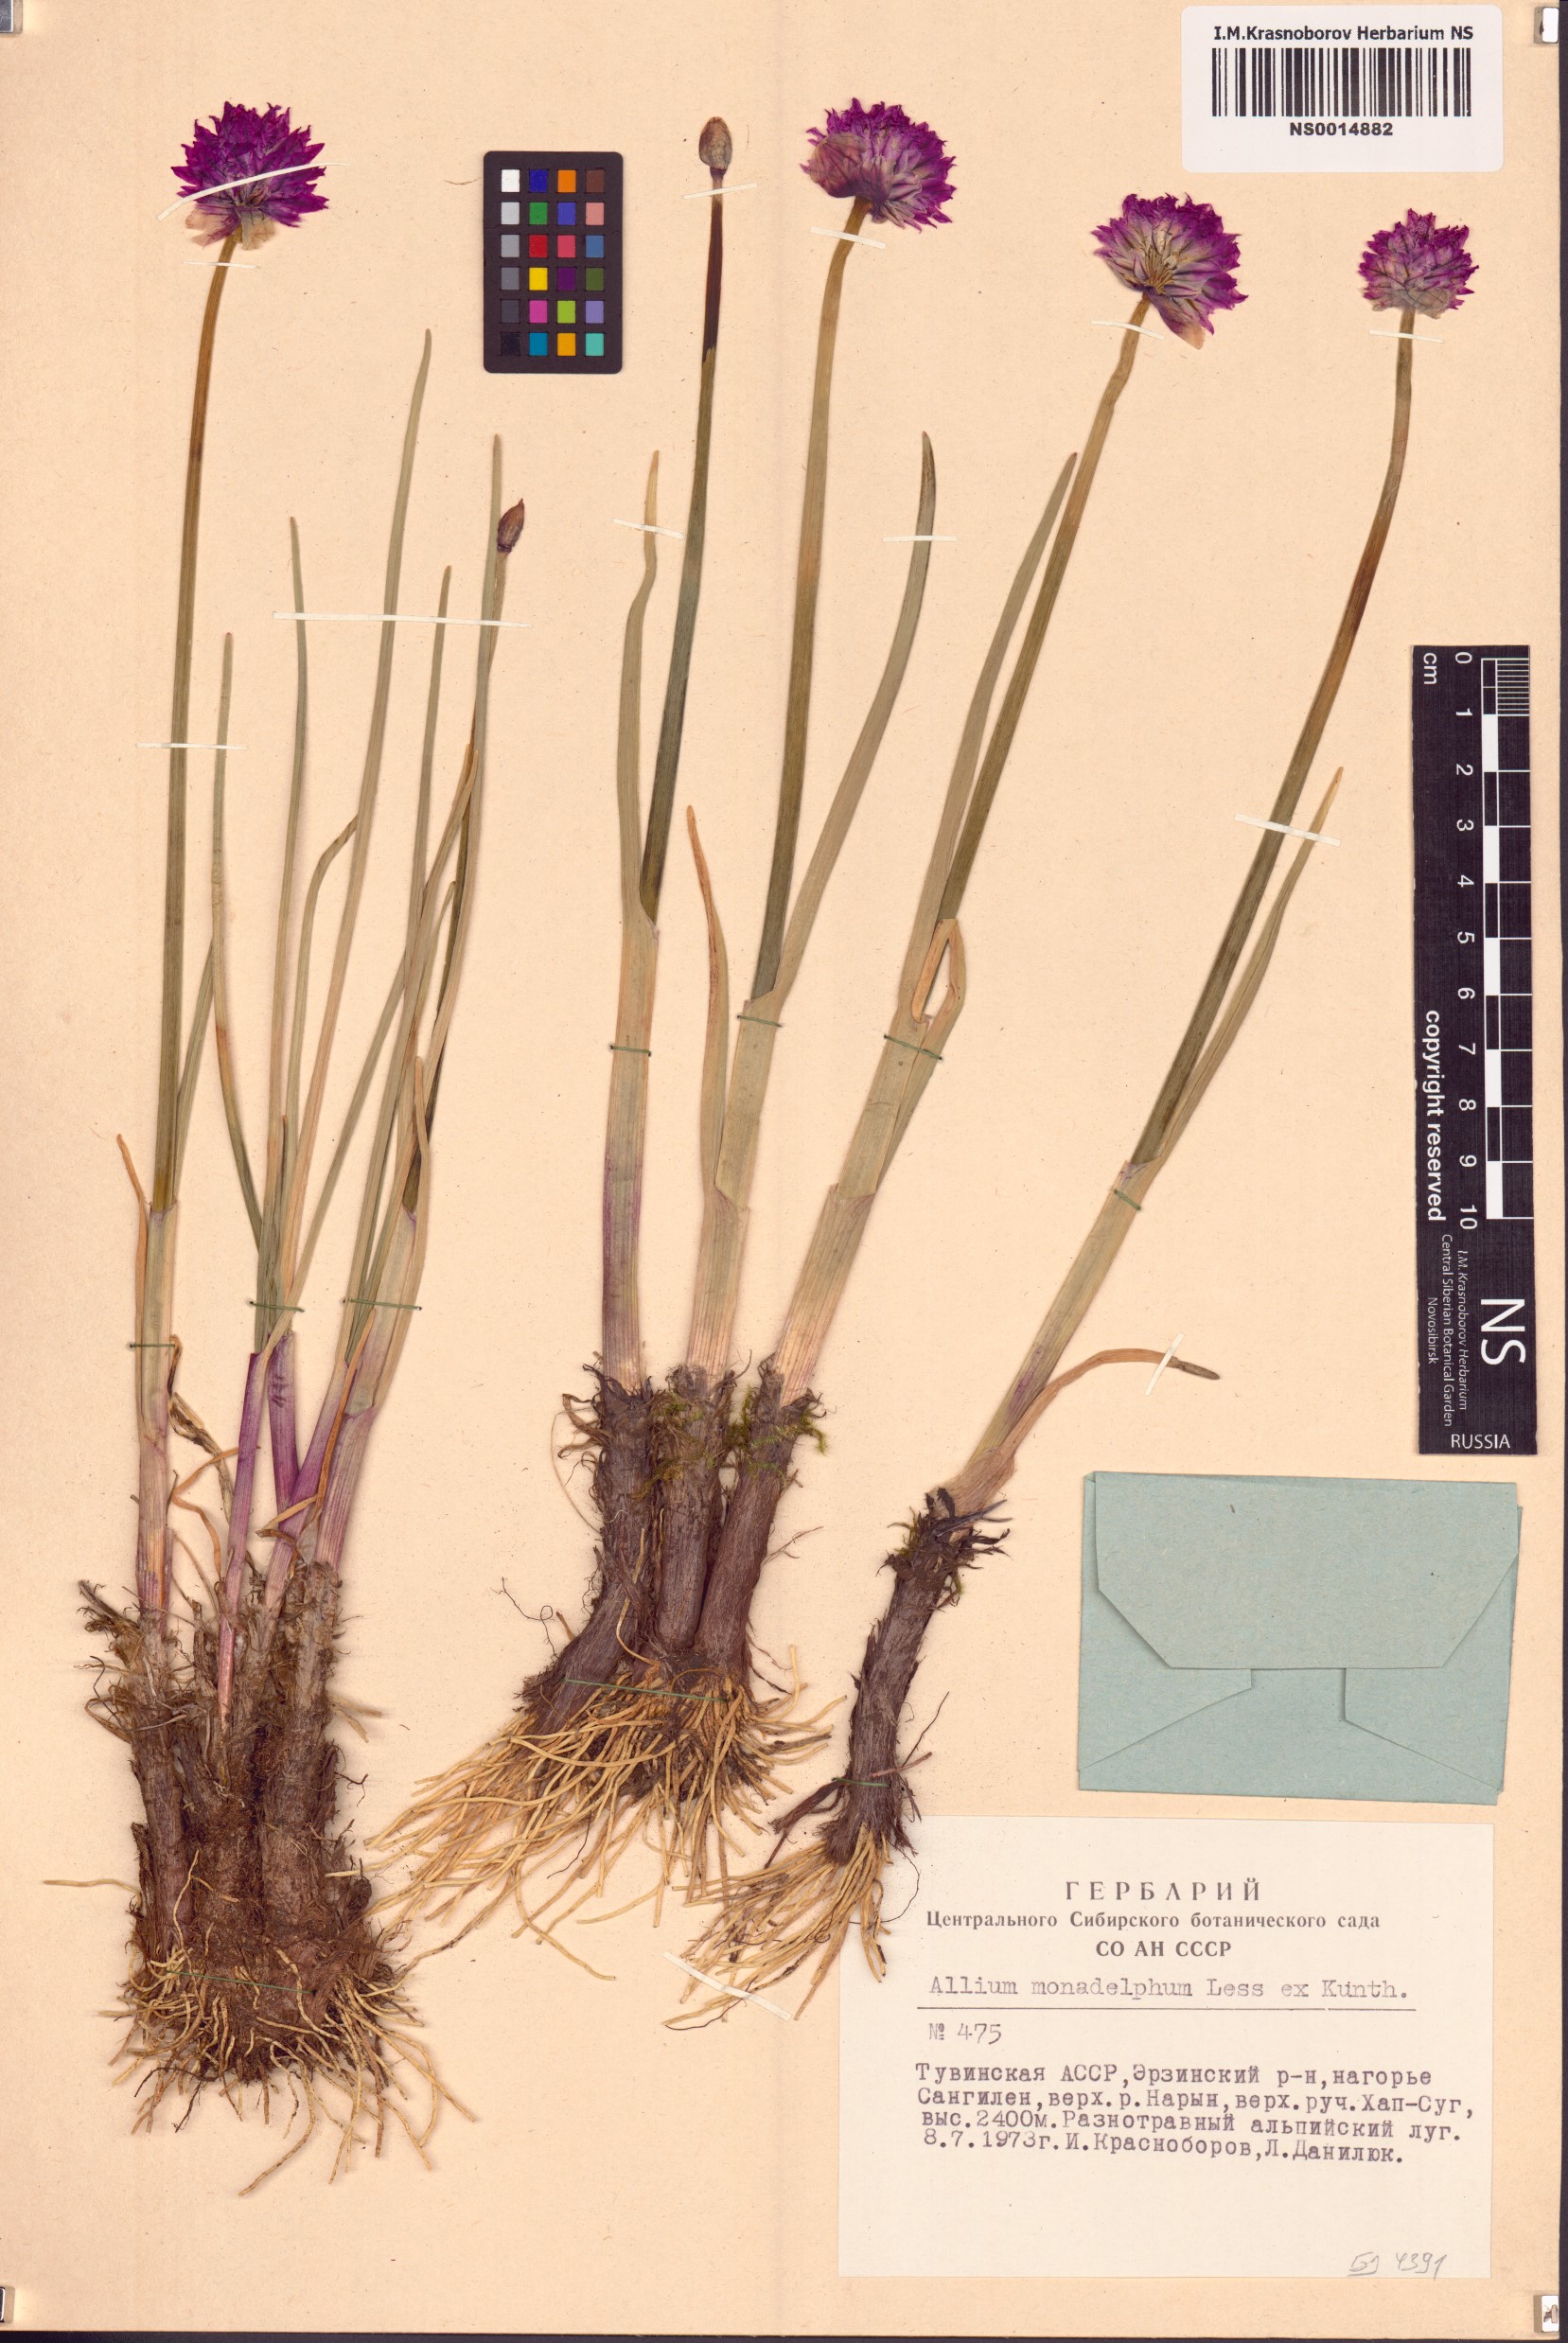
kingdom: Plantae
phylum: Tracheophyta
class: Liliopsida
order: Asparagales
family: Amaryllidaceae
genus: Allium
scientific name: Allium atrosanguineum
